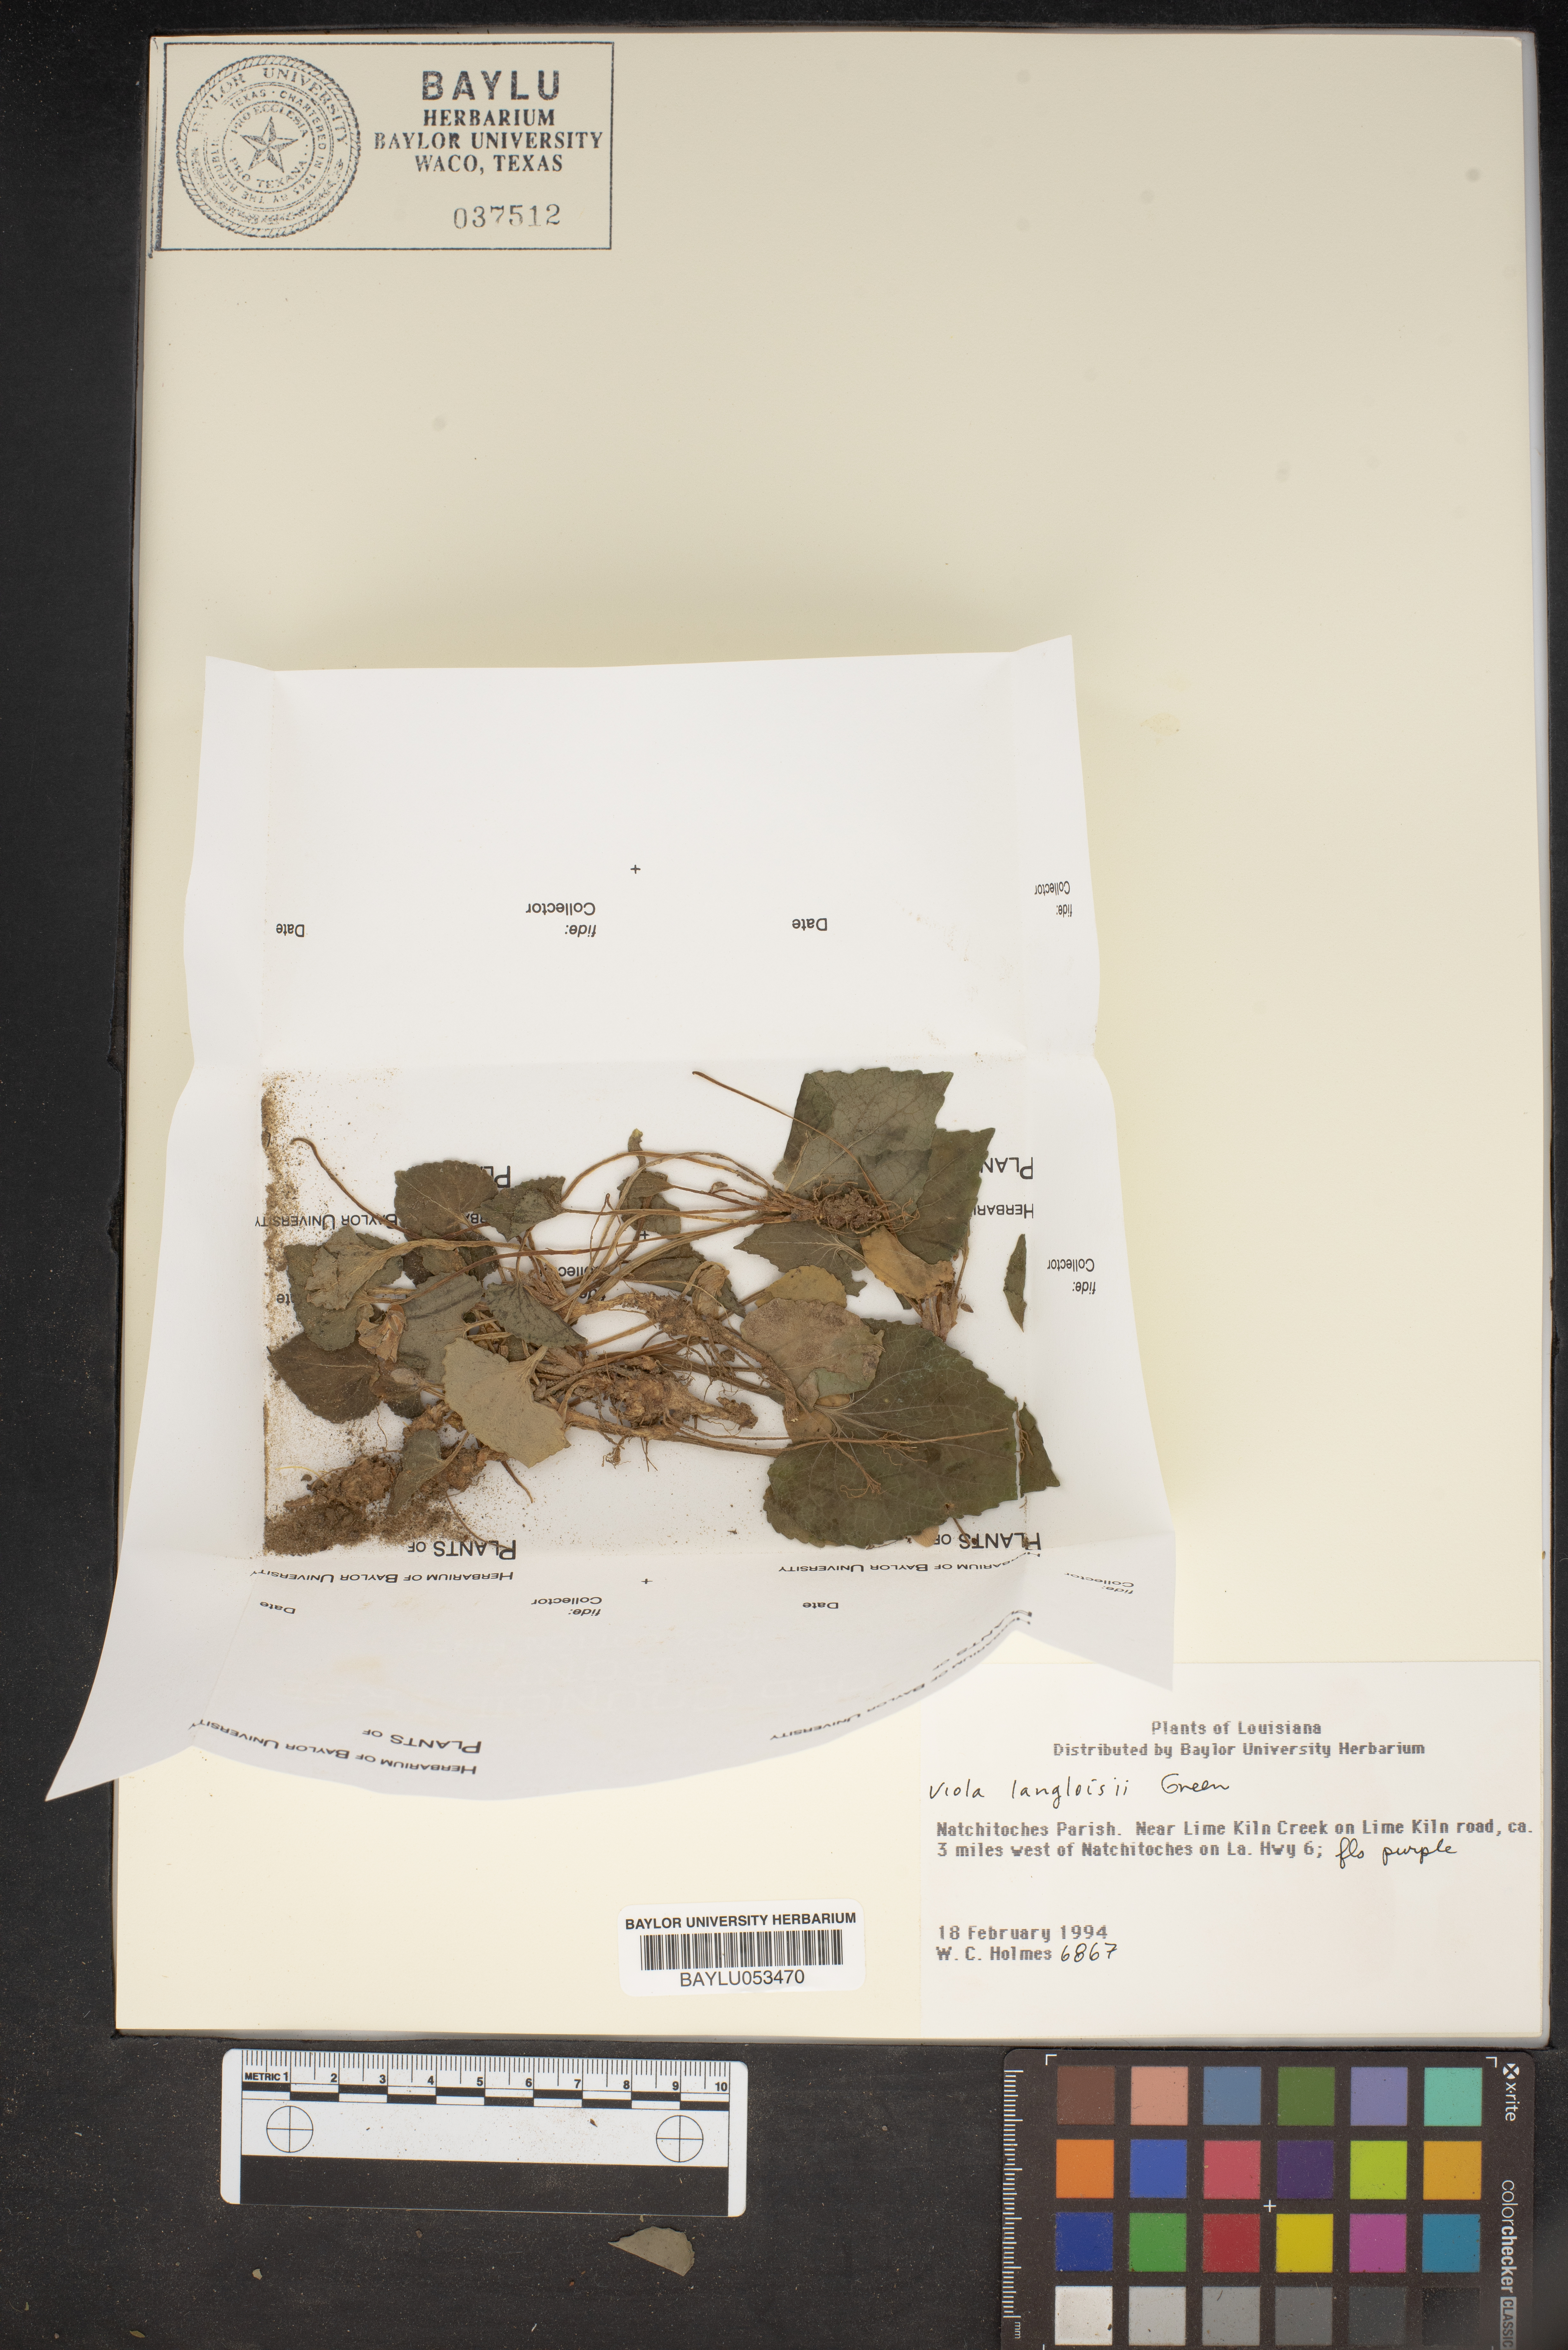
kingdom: Plantae
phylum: Tracheophyta
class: Magnoliopsida
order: Malpighiales
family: Violaceae
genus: Viola
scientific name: Viola langloisii
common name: Langlois' violet
